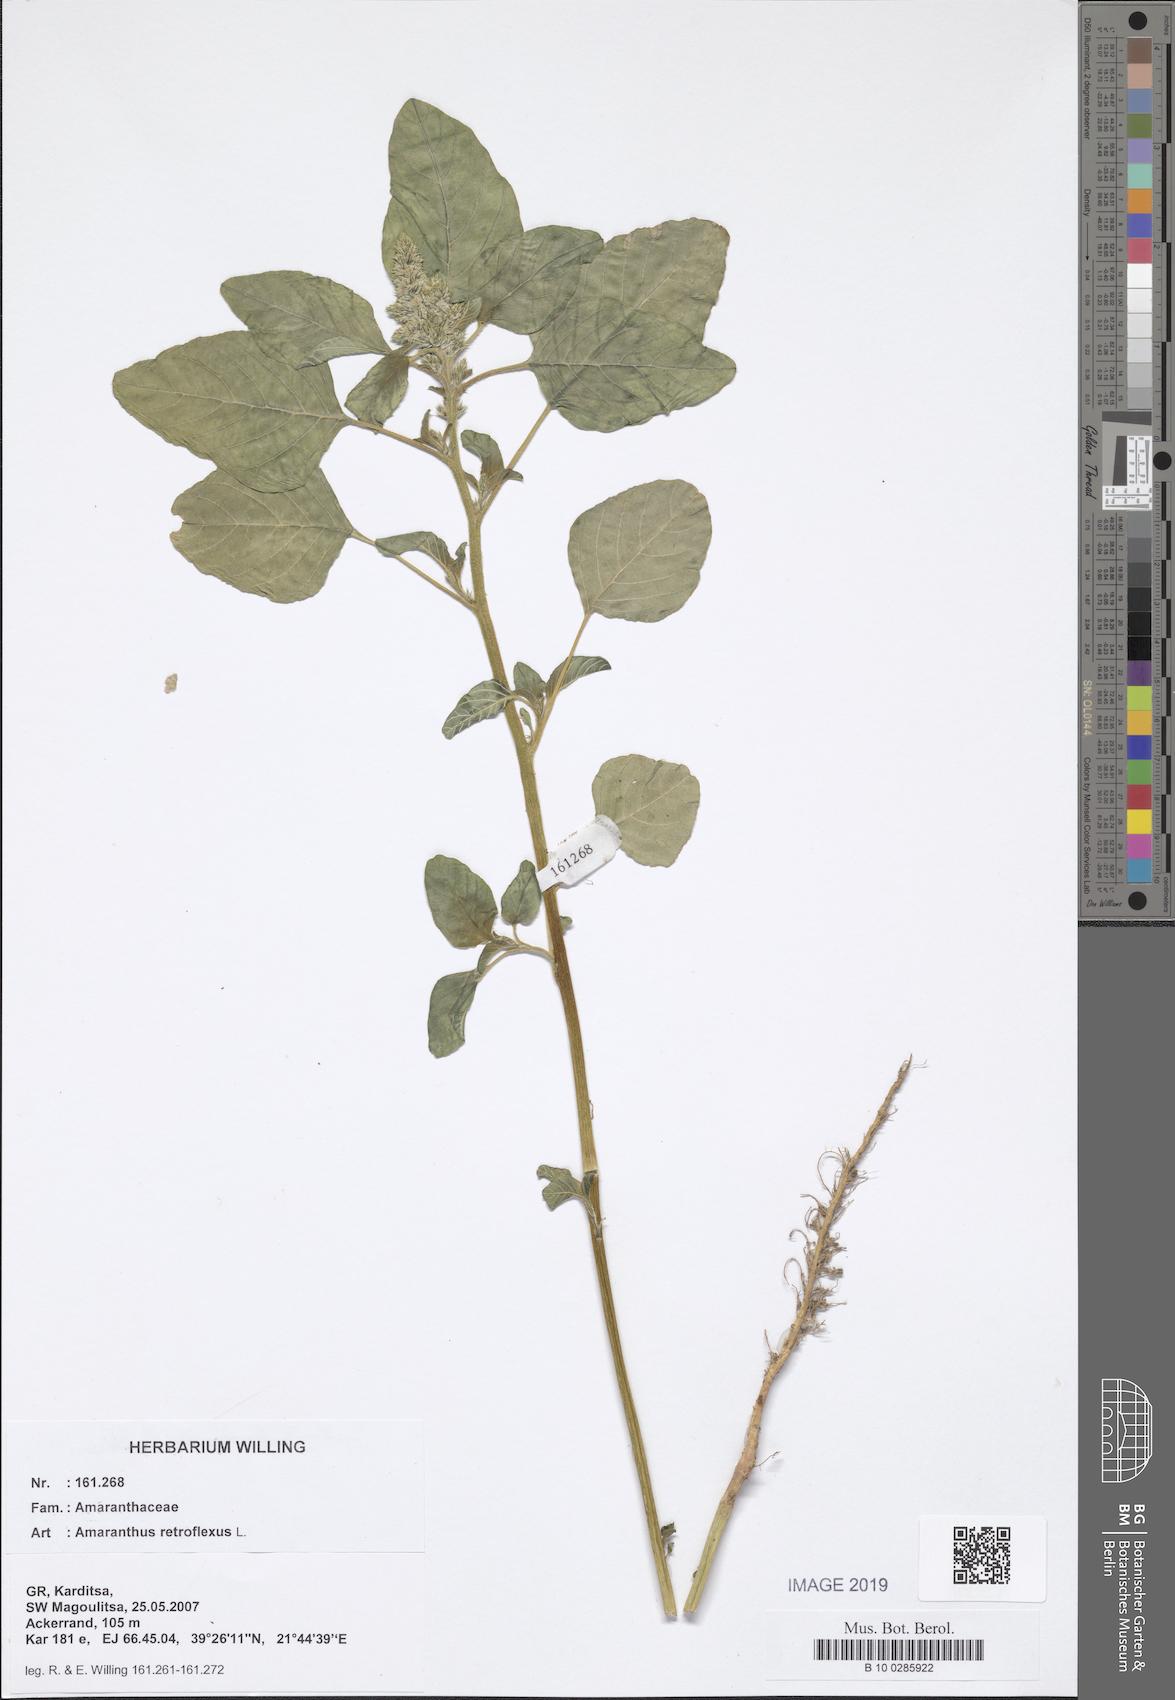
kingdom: Plantae
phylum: Tracheophyta
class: Magnoliopsida
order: Caryophyllales
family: Amaranthaceae
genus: Amaranthus
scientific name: Amaranthus retroflexus
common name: Redroot amaranth
